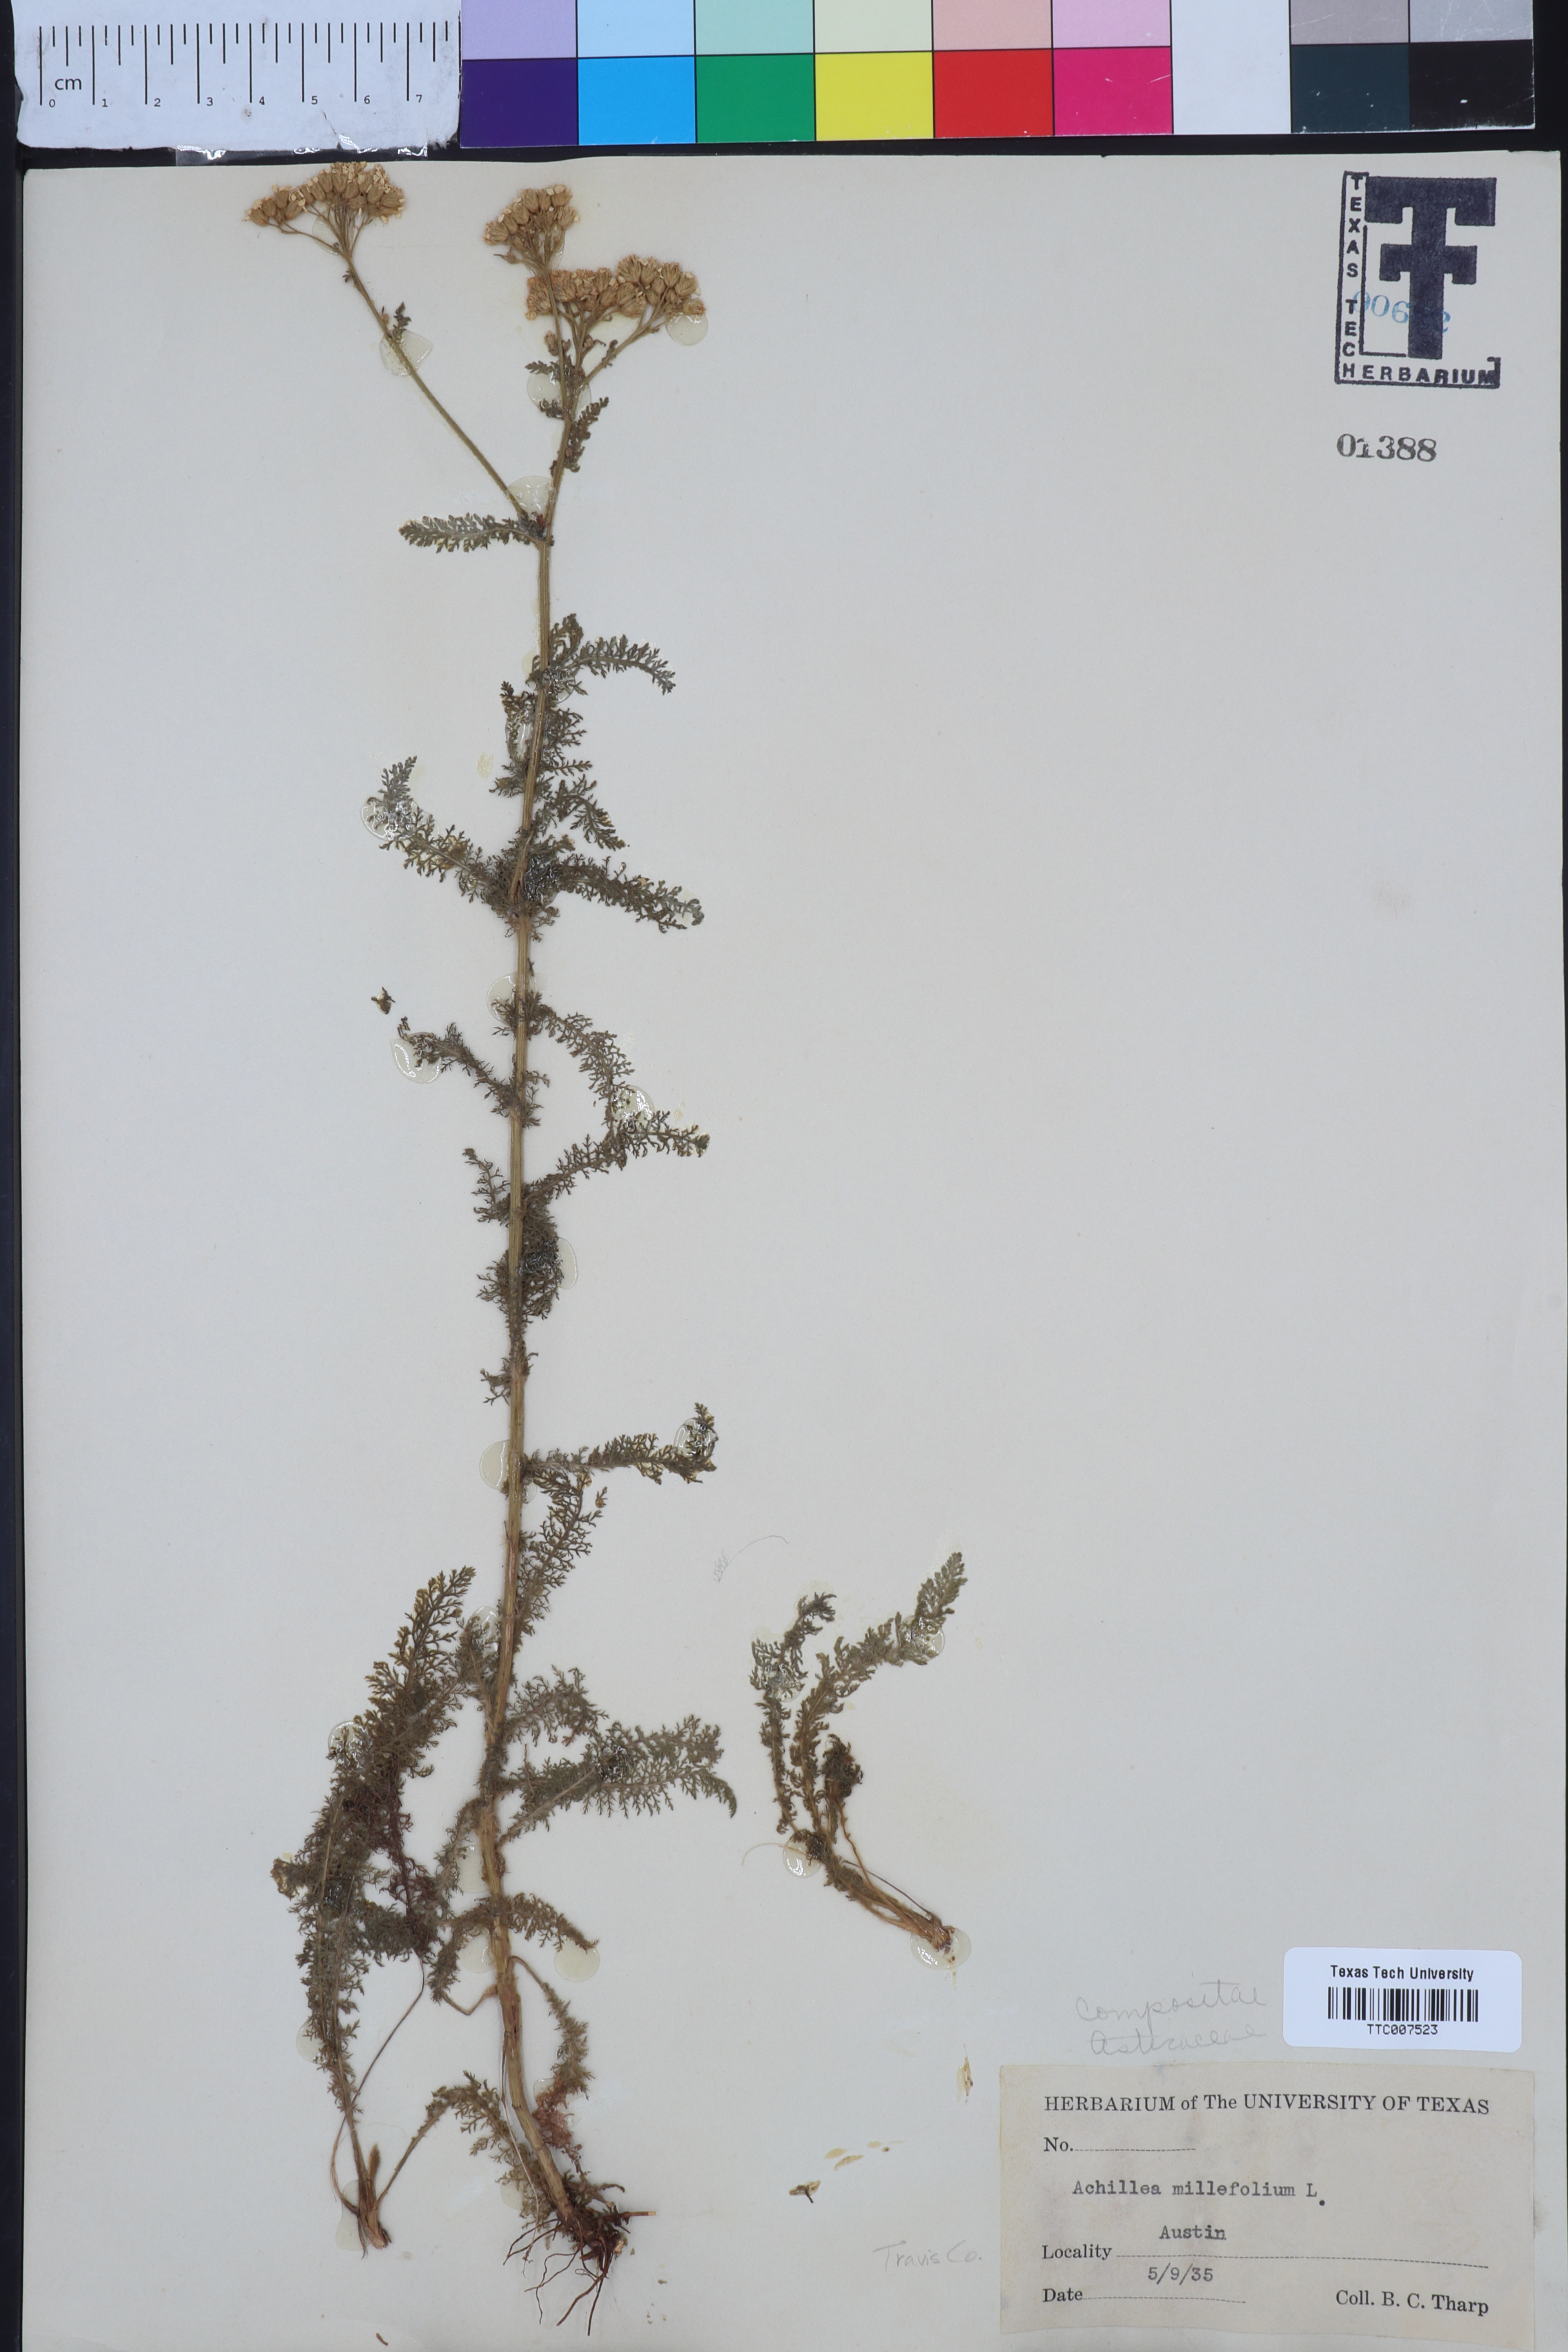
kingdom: Plantae
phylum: Tracheophyta
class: Magnoliopsida
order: Asterales
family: Asteraceae
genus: Achillea
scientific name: Achillea millefolium
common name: Yarrow
